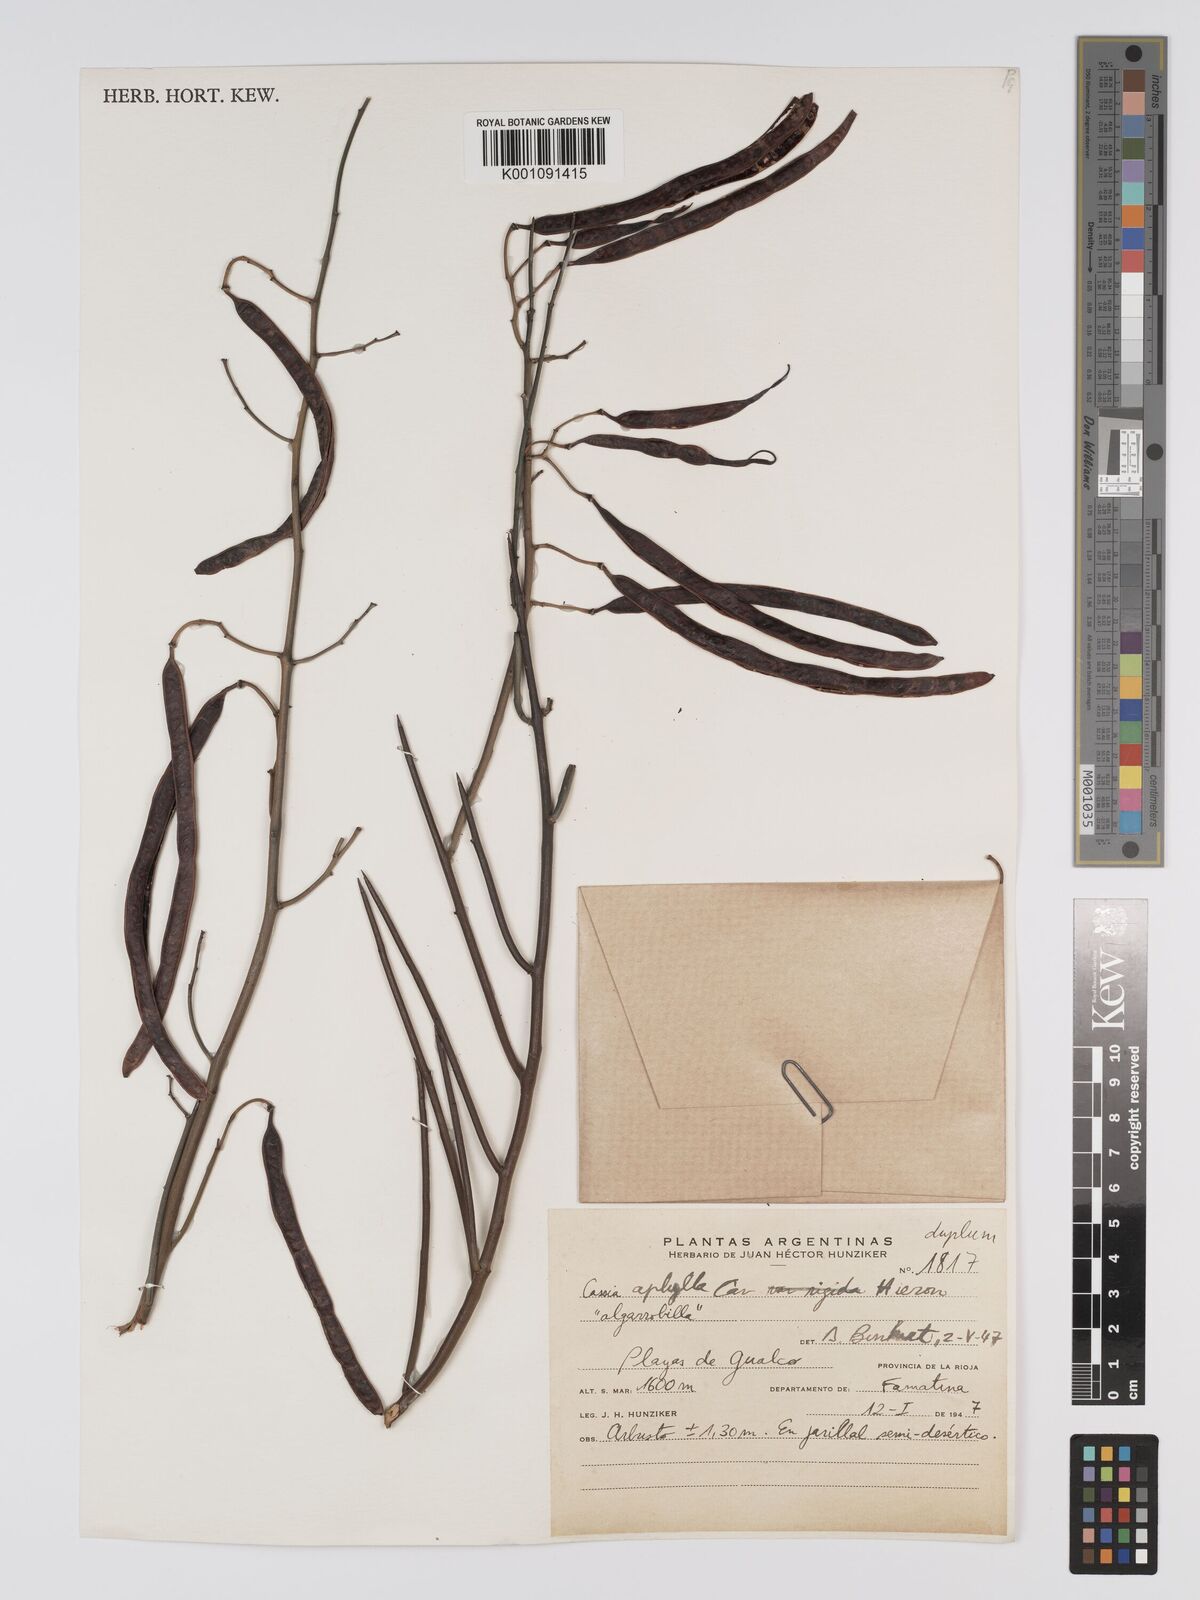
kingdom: Plantae
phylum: Tracheophyta
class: Magnoliopsida
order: Fabales
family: Fabaceae
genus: Senna
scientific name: Senna aphylla
